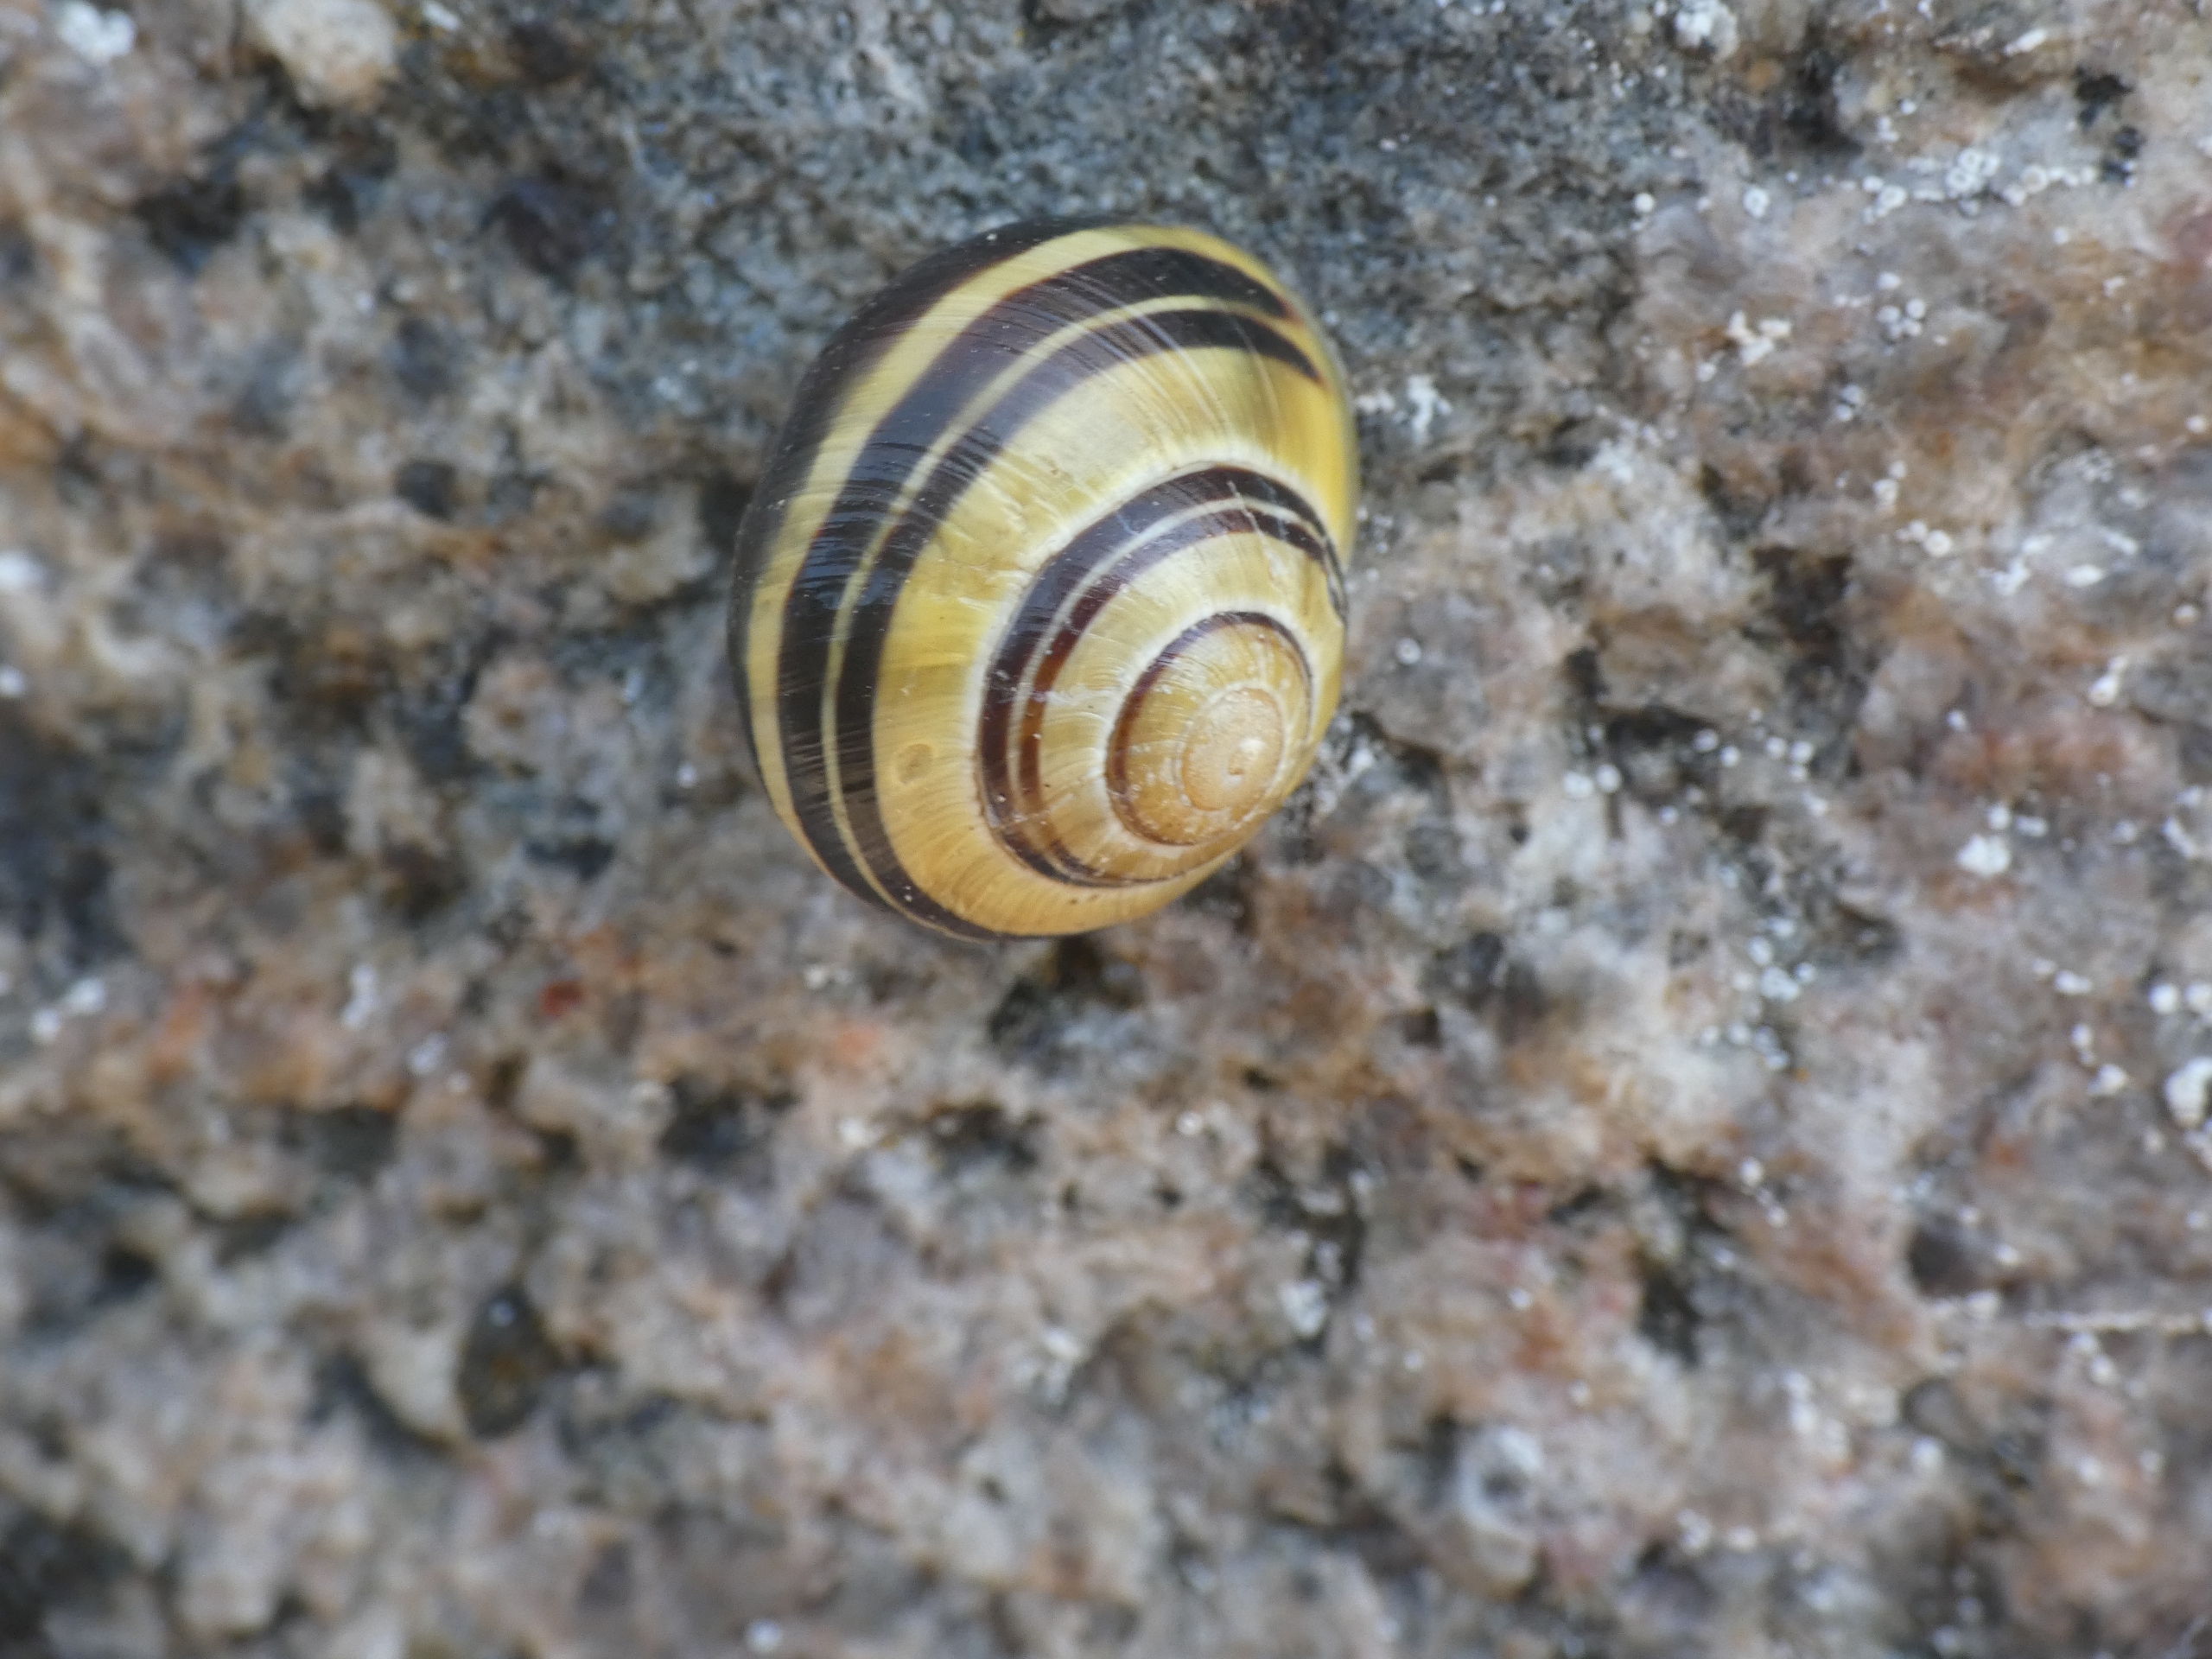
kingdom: Animalia
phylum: Mollusca
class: Gastropoda
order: Stylommatophora
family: Helicidae
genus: Cepaea
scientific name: Cepaea hortensis
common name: Havesnegl
